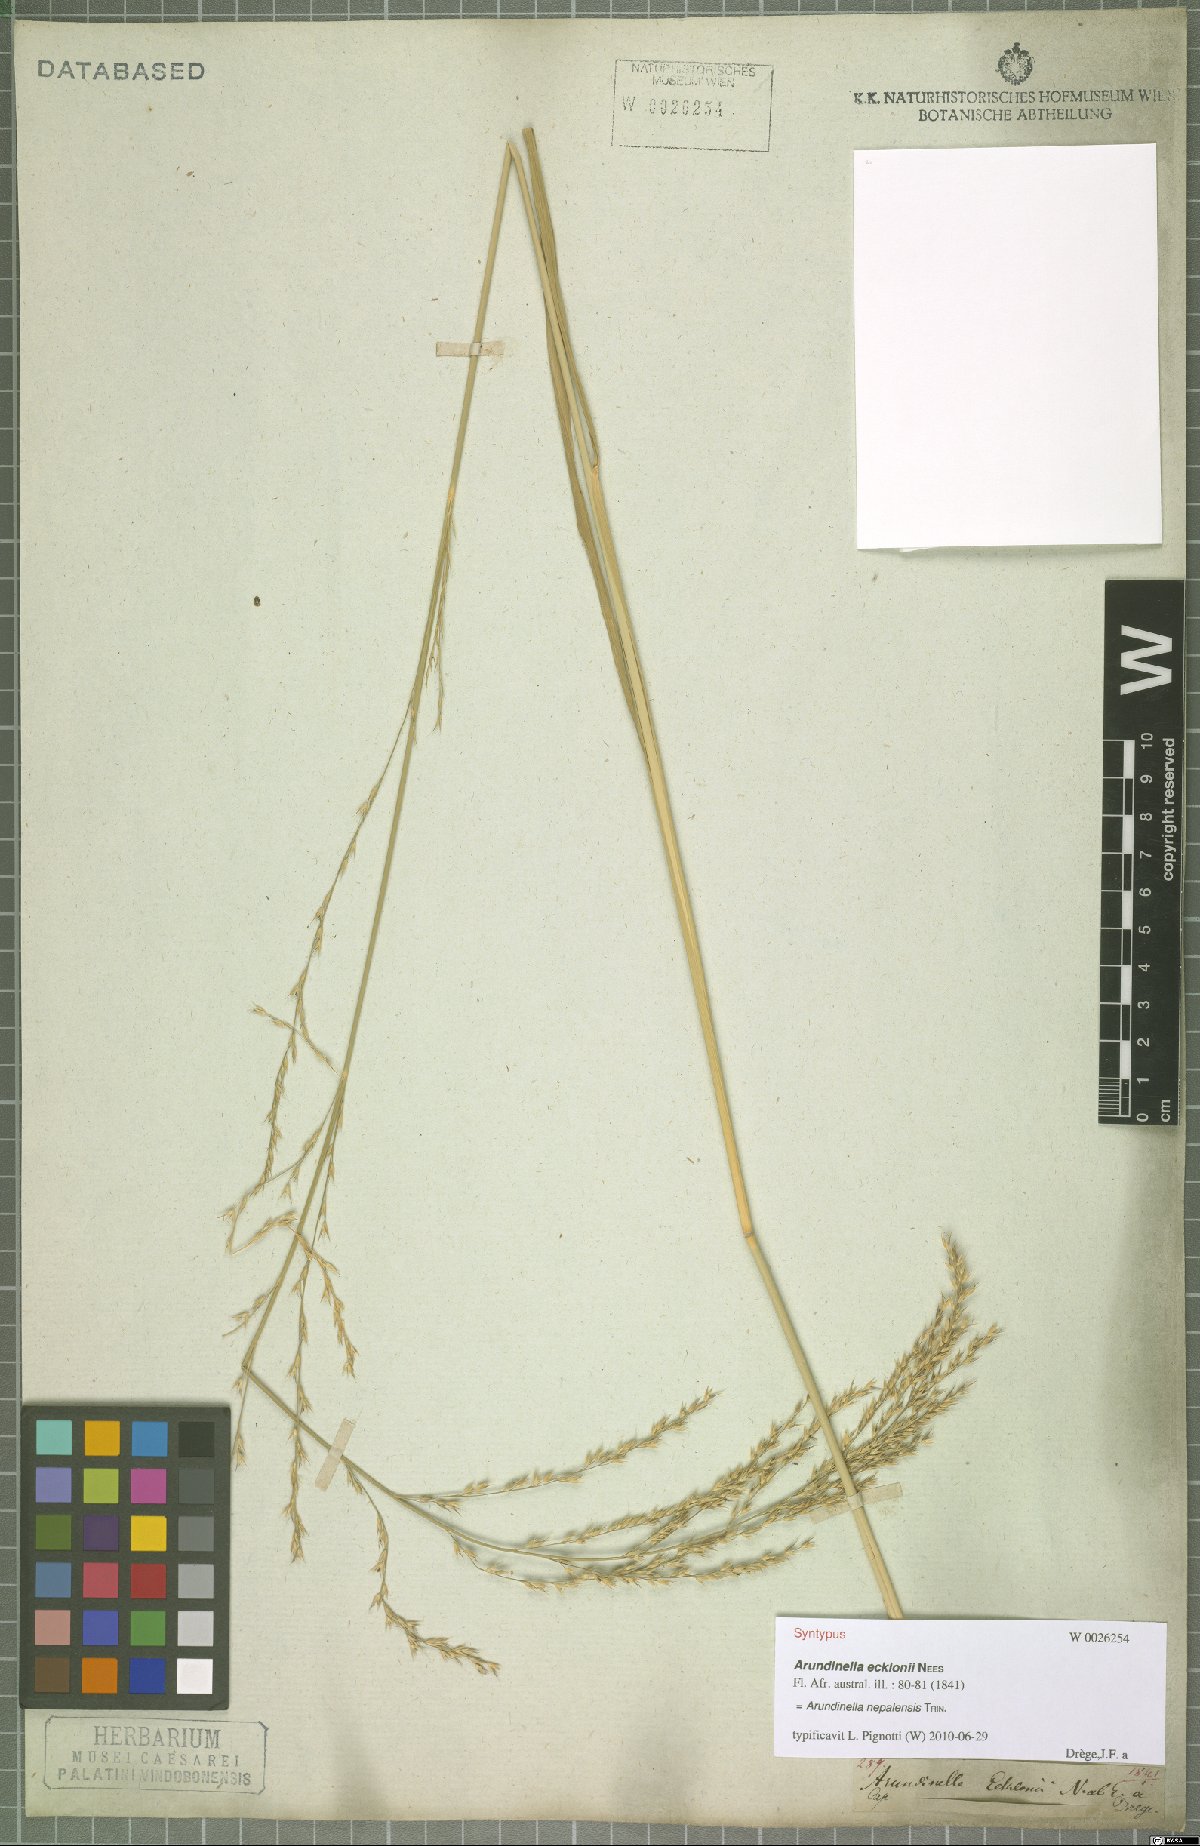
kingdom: Plantae
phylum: Tracheophyta
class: Liliopsida
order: Poales
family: Poaceae
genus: Arundinella
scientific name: Arundinella nepalensis
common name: Reed grass
